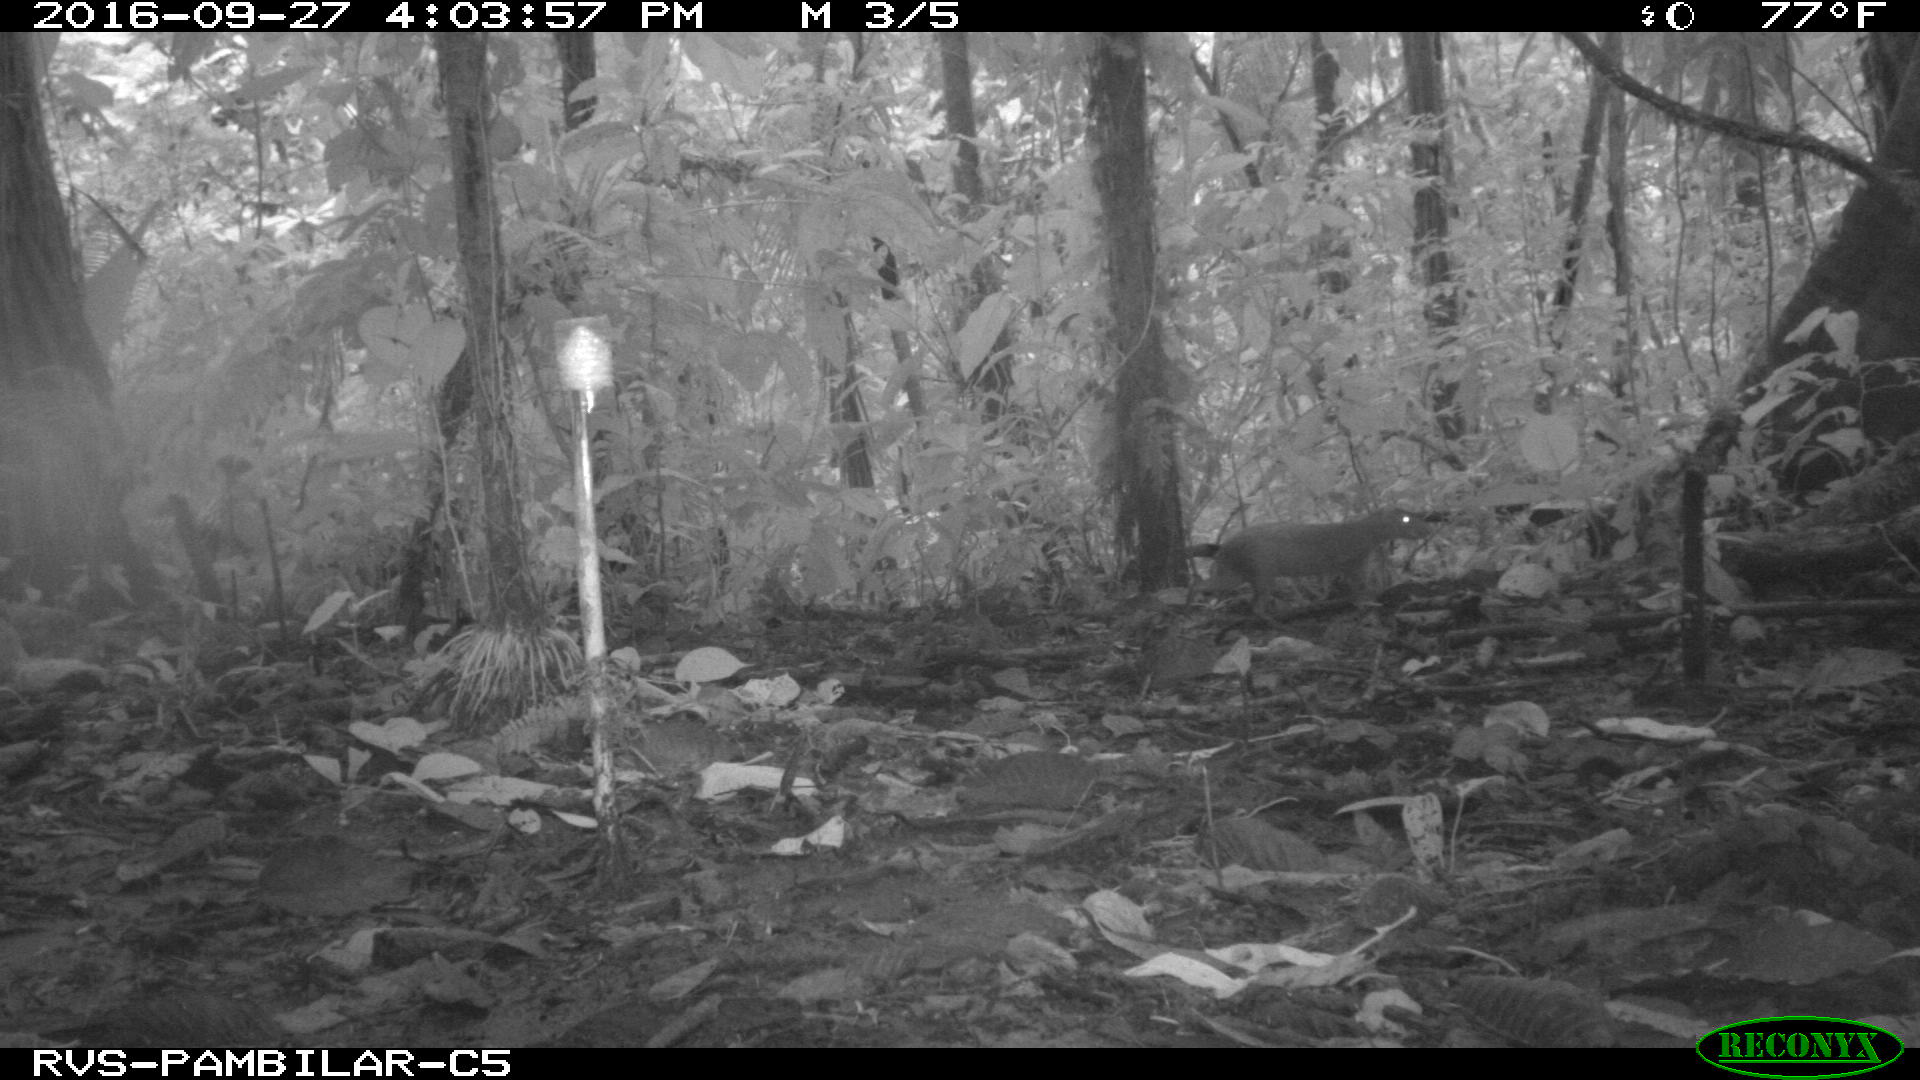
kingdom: Animalia
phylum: Chordata
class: Mammalia
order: Rodentia
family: Dasyproctidae
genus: Dasyprocta
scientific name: Dasyprocta punctata
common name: Central american agouti
